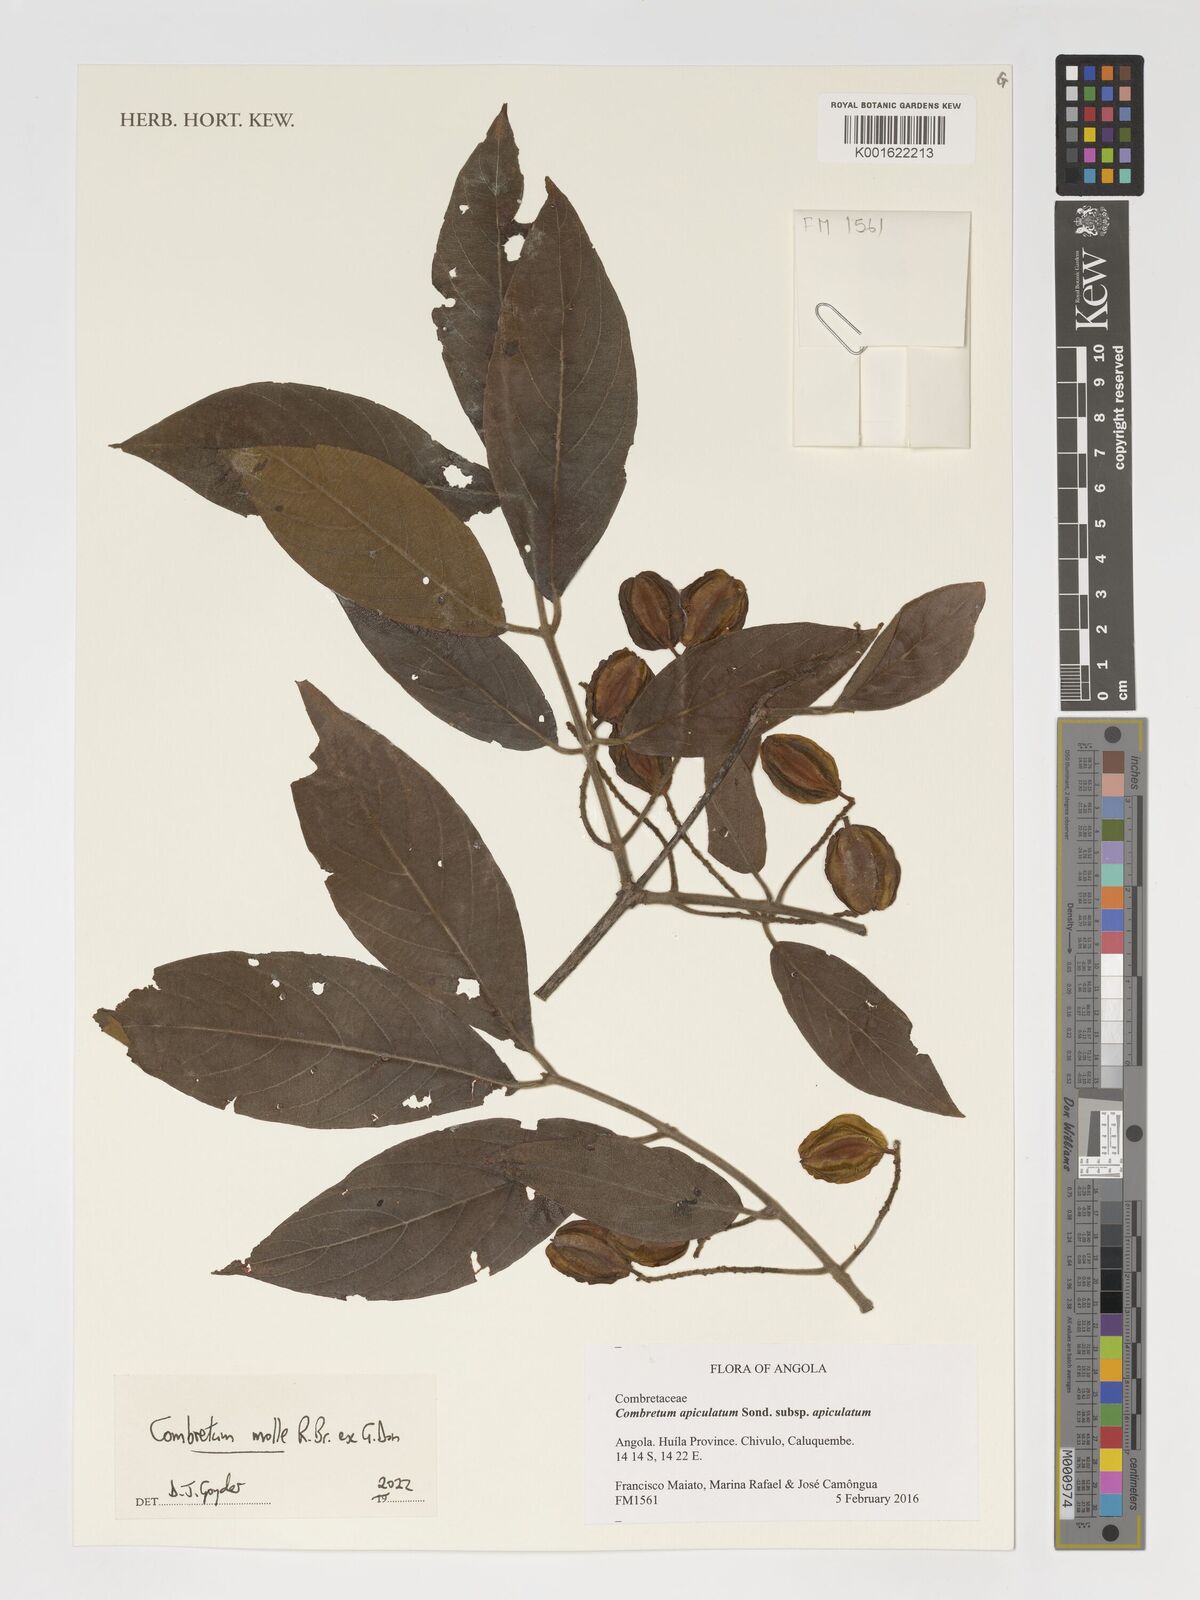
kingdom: Plantae
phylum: Tracheophyta
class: Magnoliopsida
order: Myrtales
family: Combretaceae
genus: Combretum
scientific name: Combretum molle
